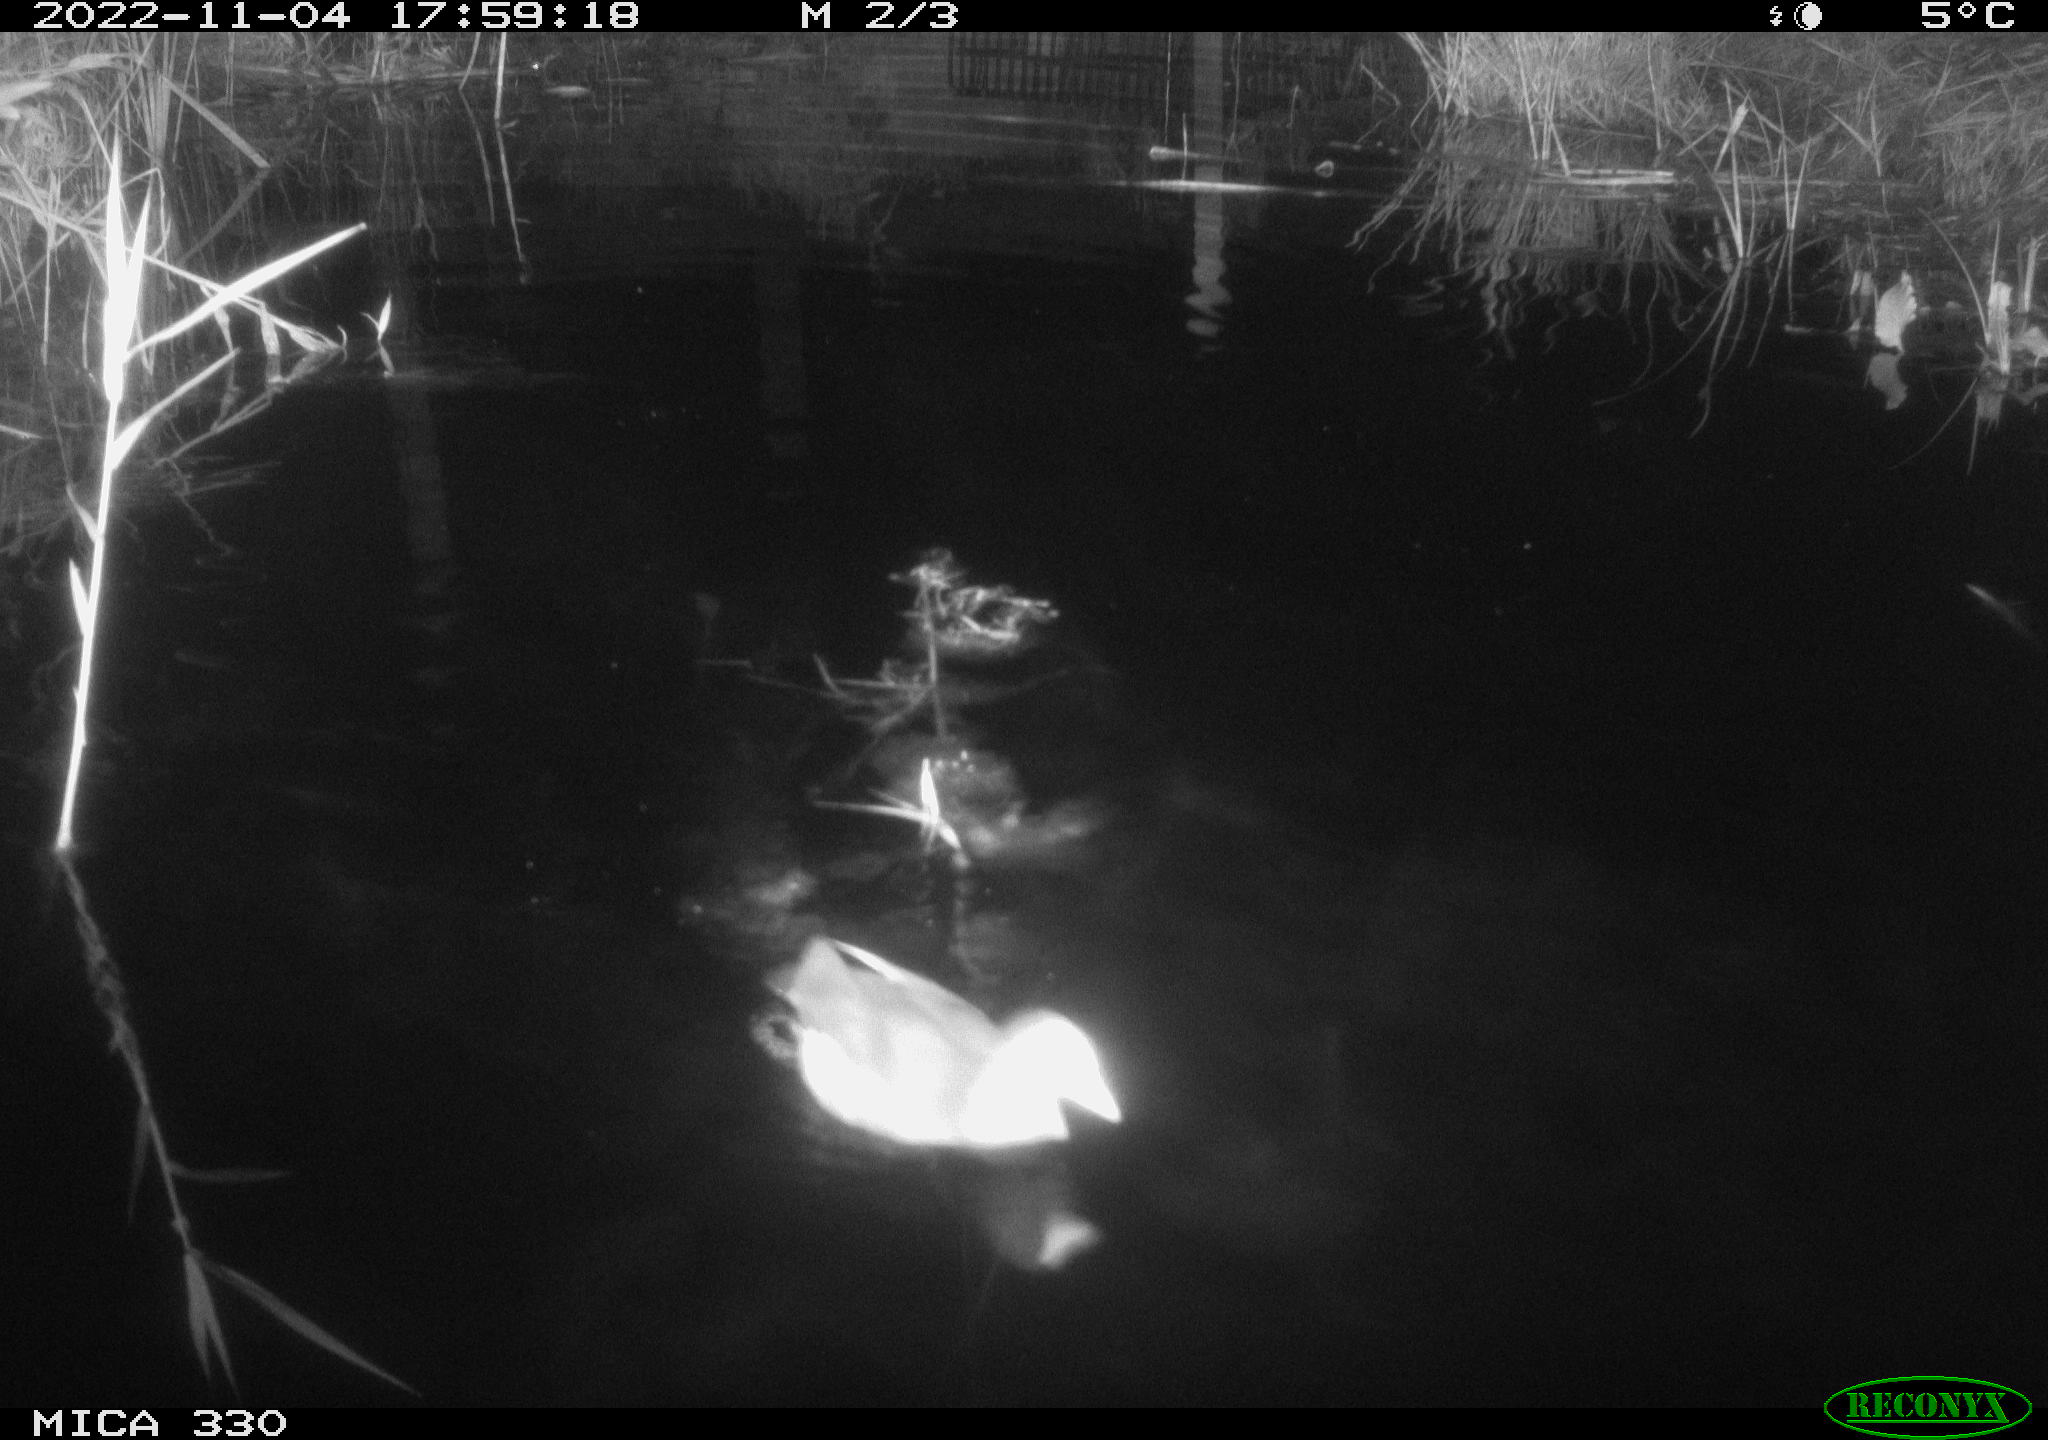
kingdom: Animalia
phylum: Chordata
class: Aves
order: Gruiformes
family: Rallidae
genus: Gallinula
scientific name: Gallinula chloropus
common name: Common moorhen
